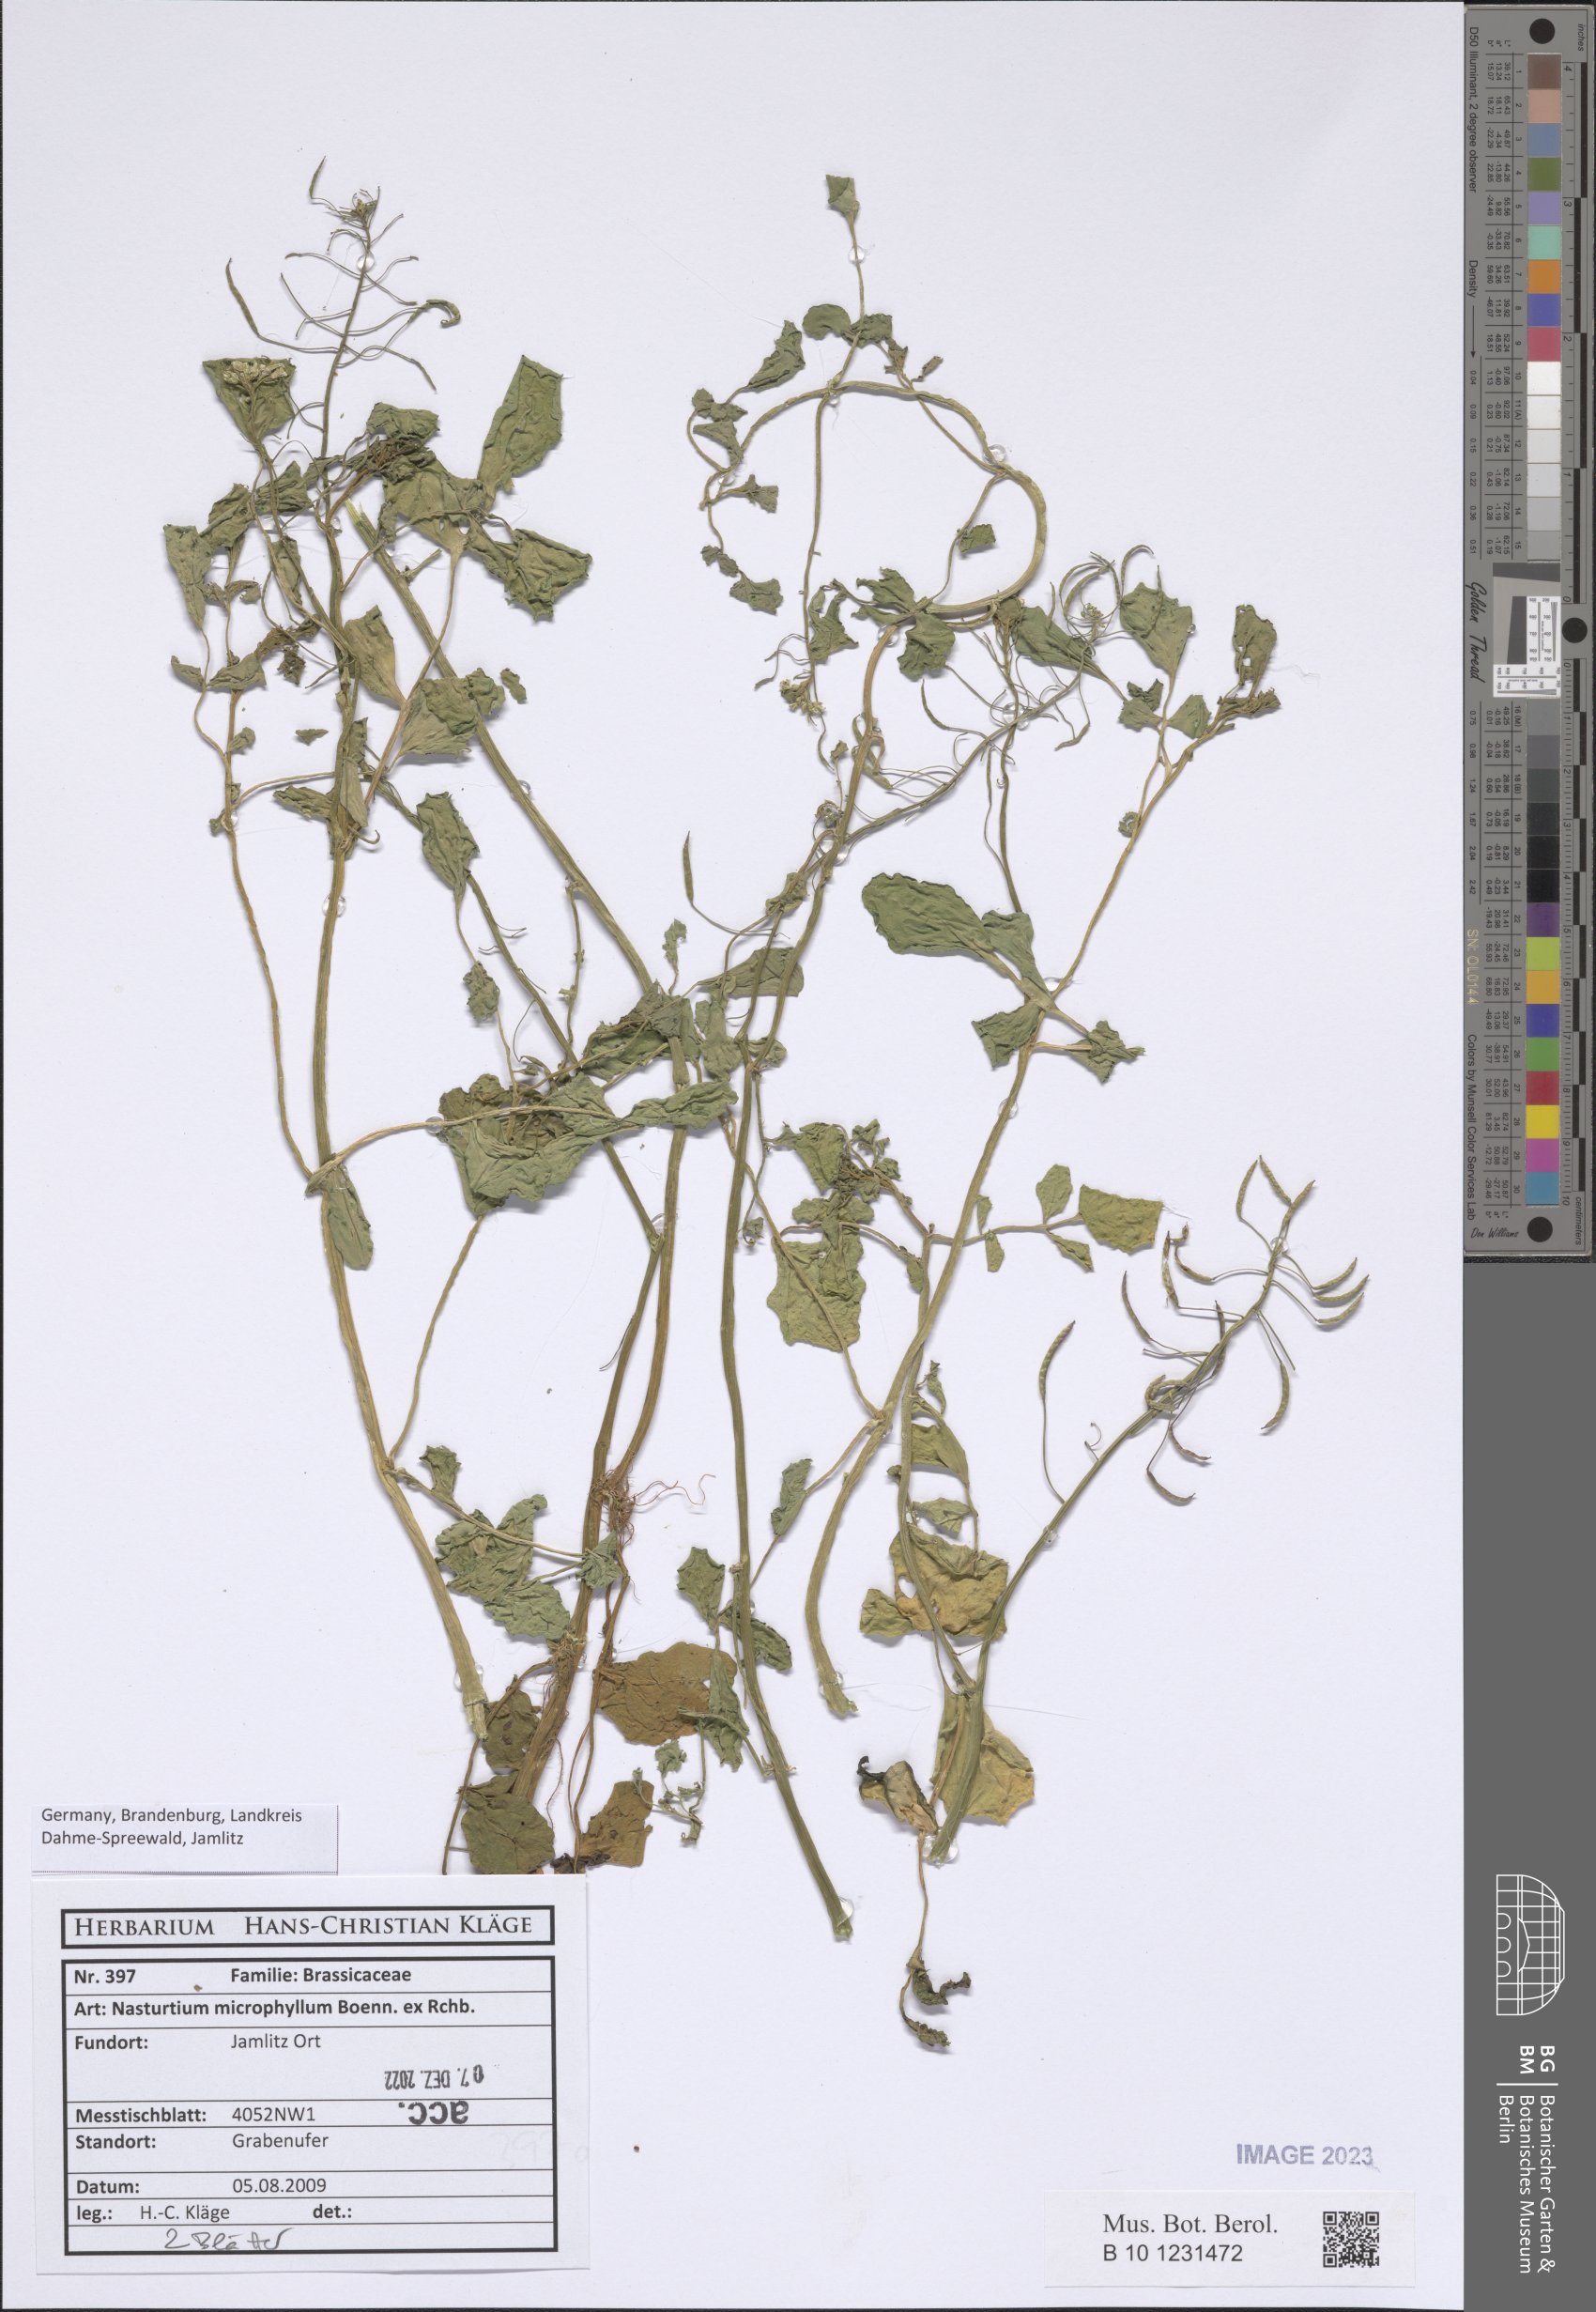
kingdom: Plantae
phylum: Tracheophyta
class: Magnoliopsida
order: Brassicales
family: Brassicaceae
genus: Nasturtium
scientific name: Nasturtium microphyllum
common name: Onerow yellowcress
